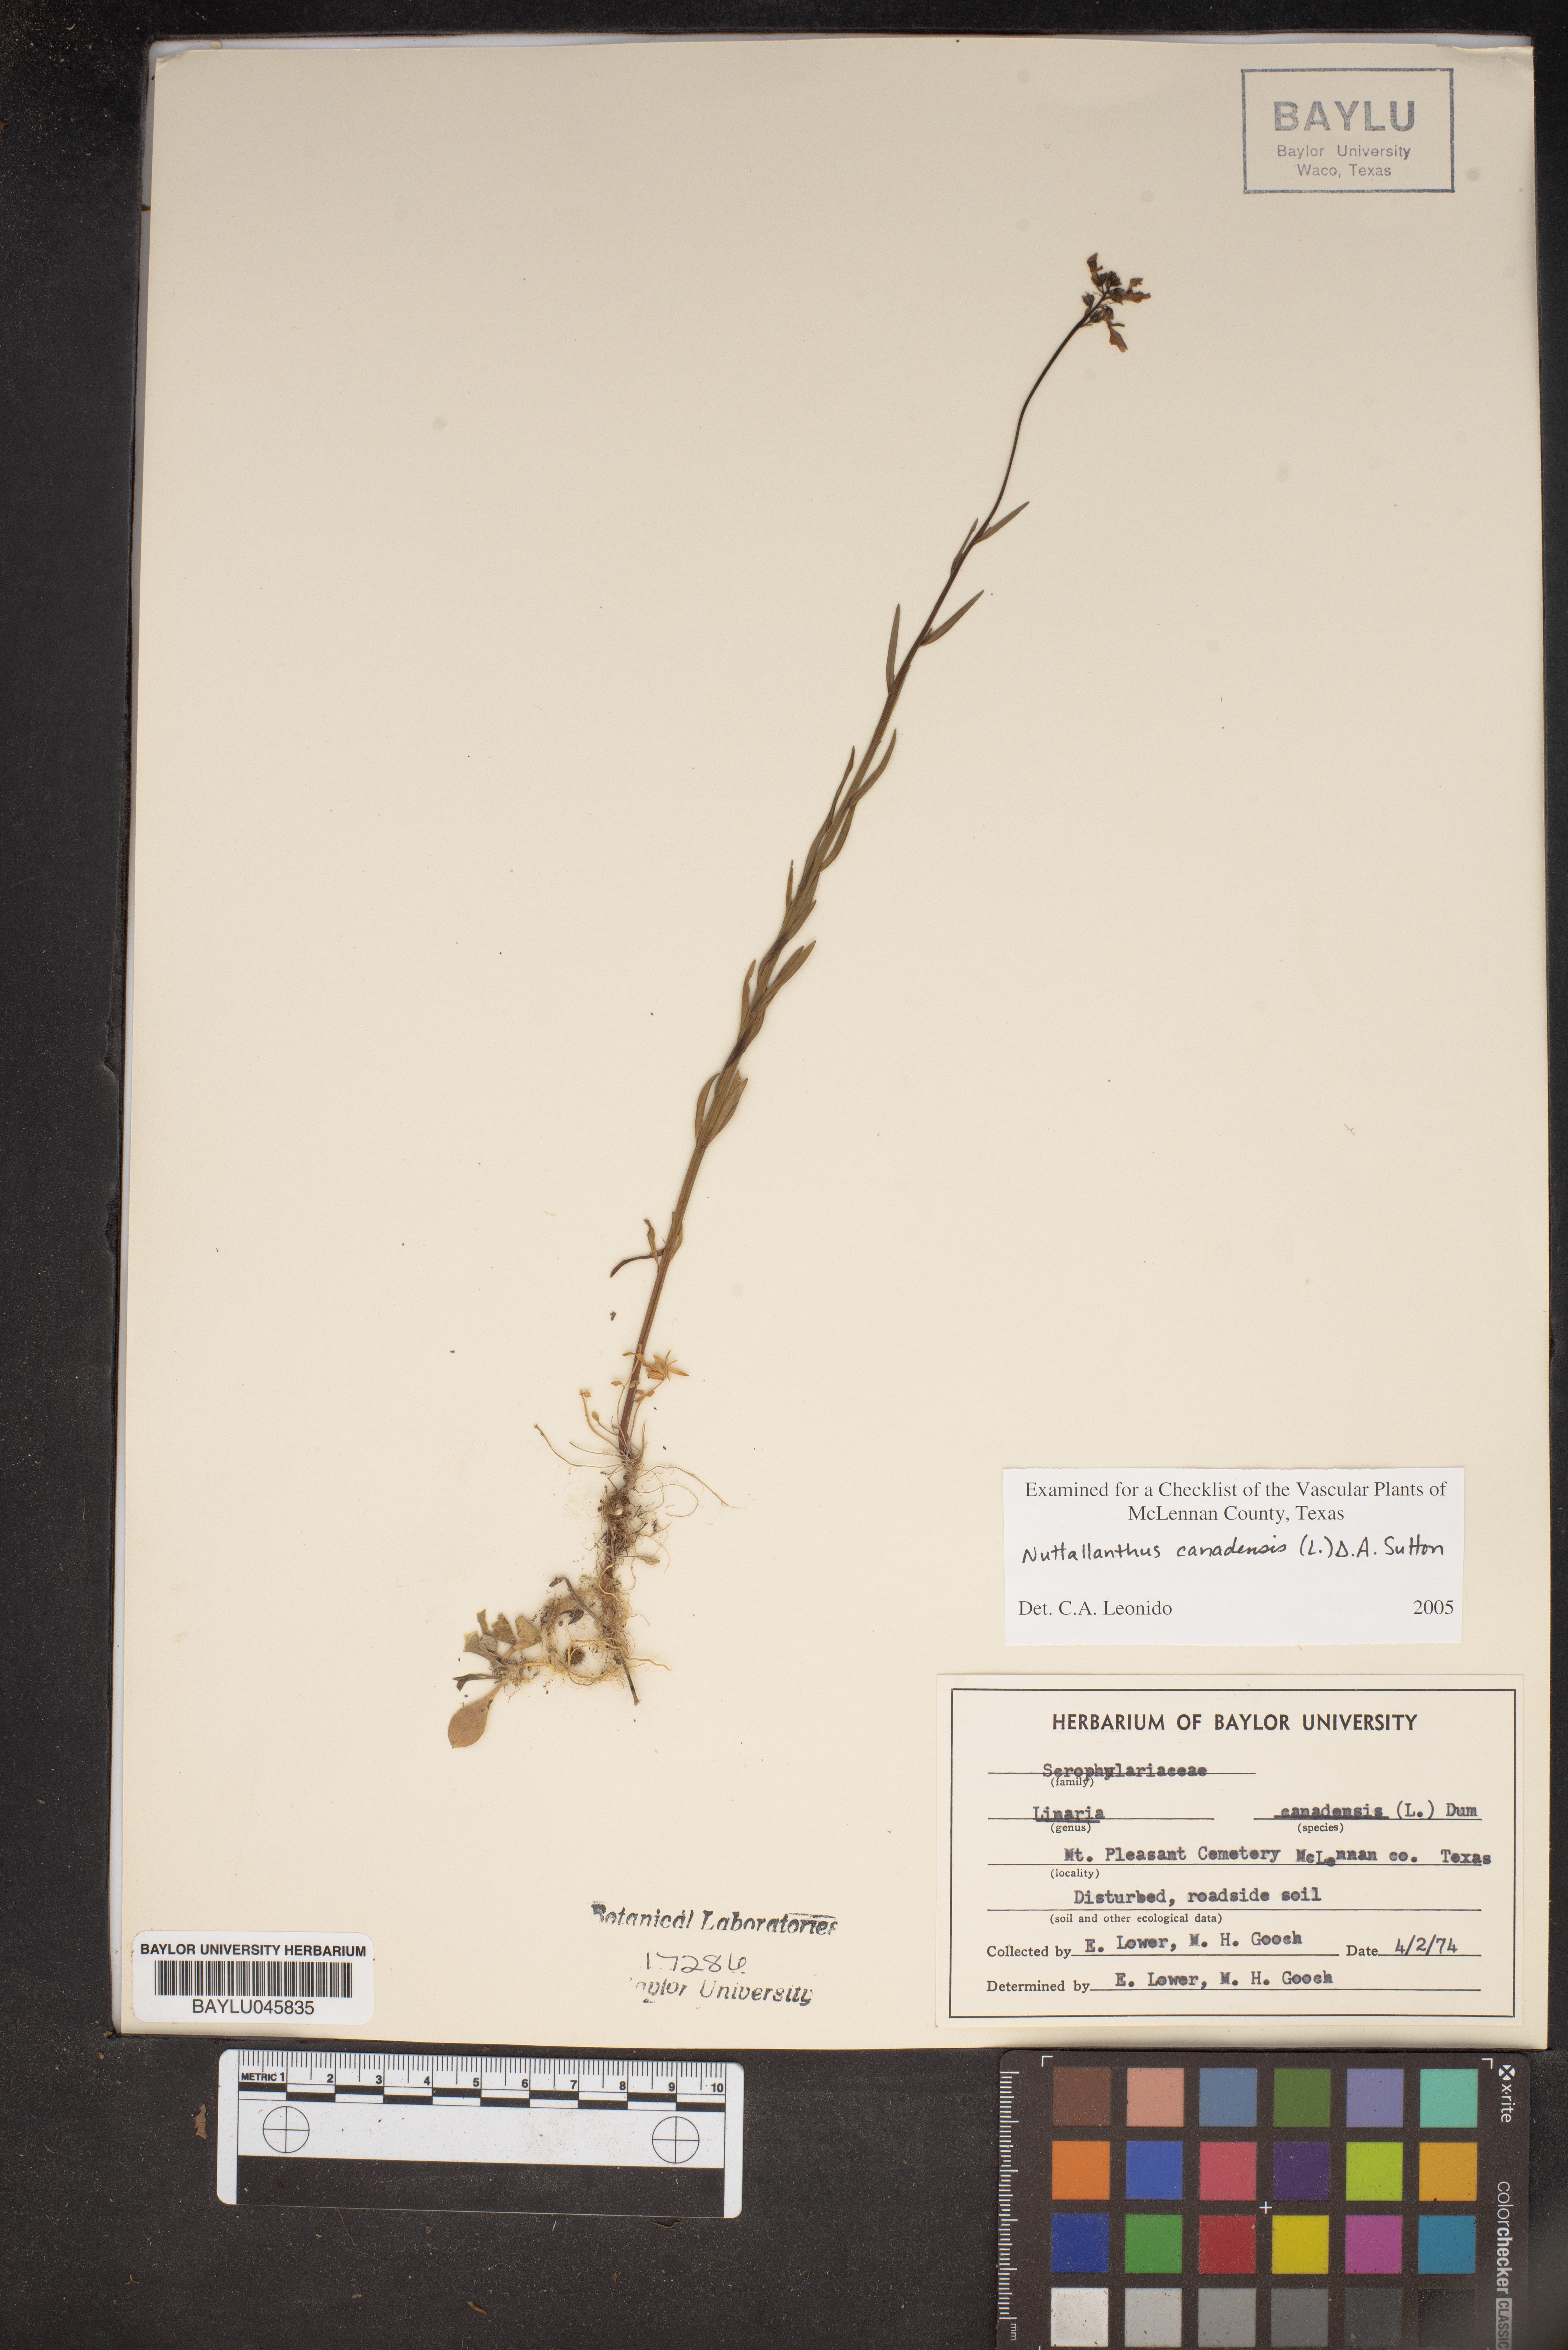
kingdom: Plantae
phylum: Tracheophyta
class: Magnoliopsida
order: Lamiales
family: Plantaginaceae
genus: Nuttallanthus
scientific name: Nuttallanthus canadensis
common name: Blue toadflax
